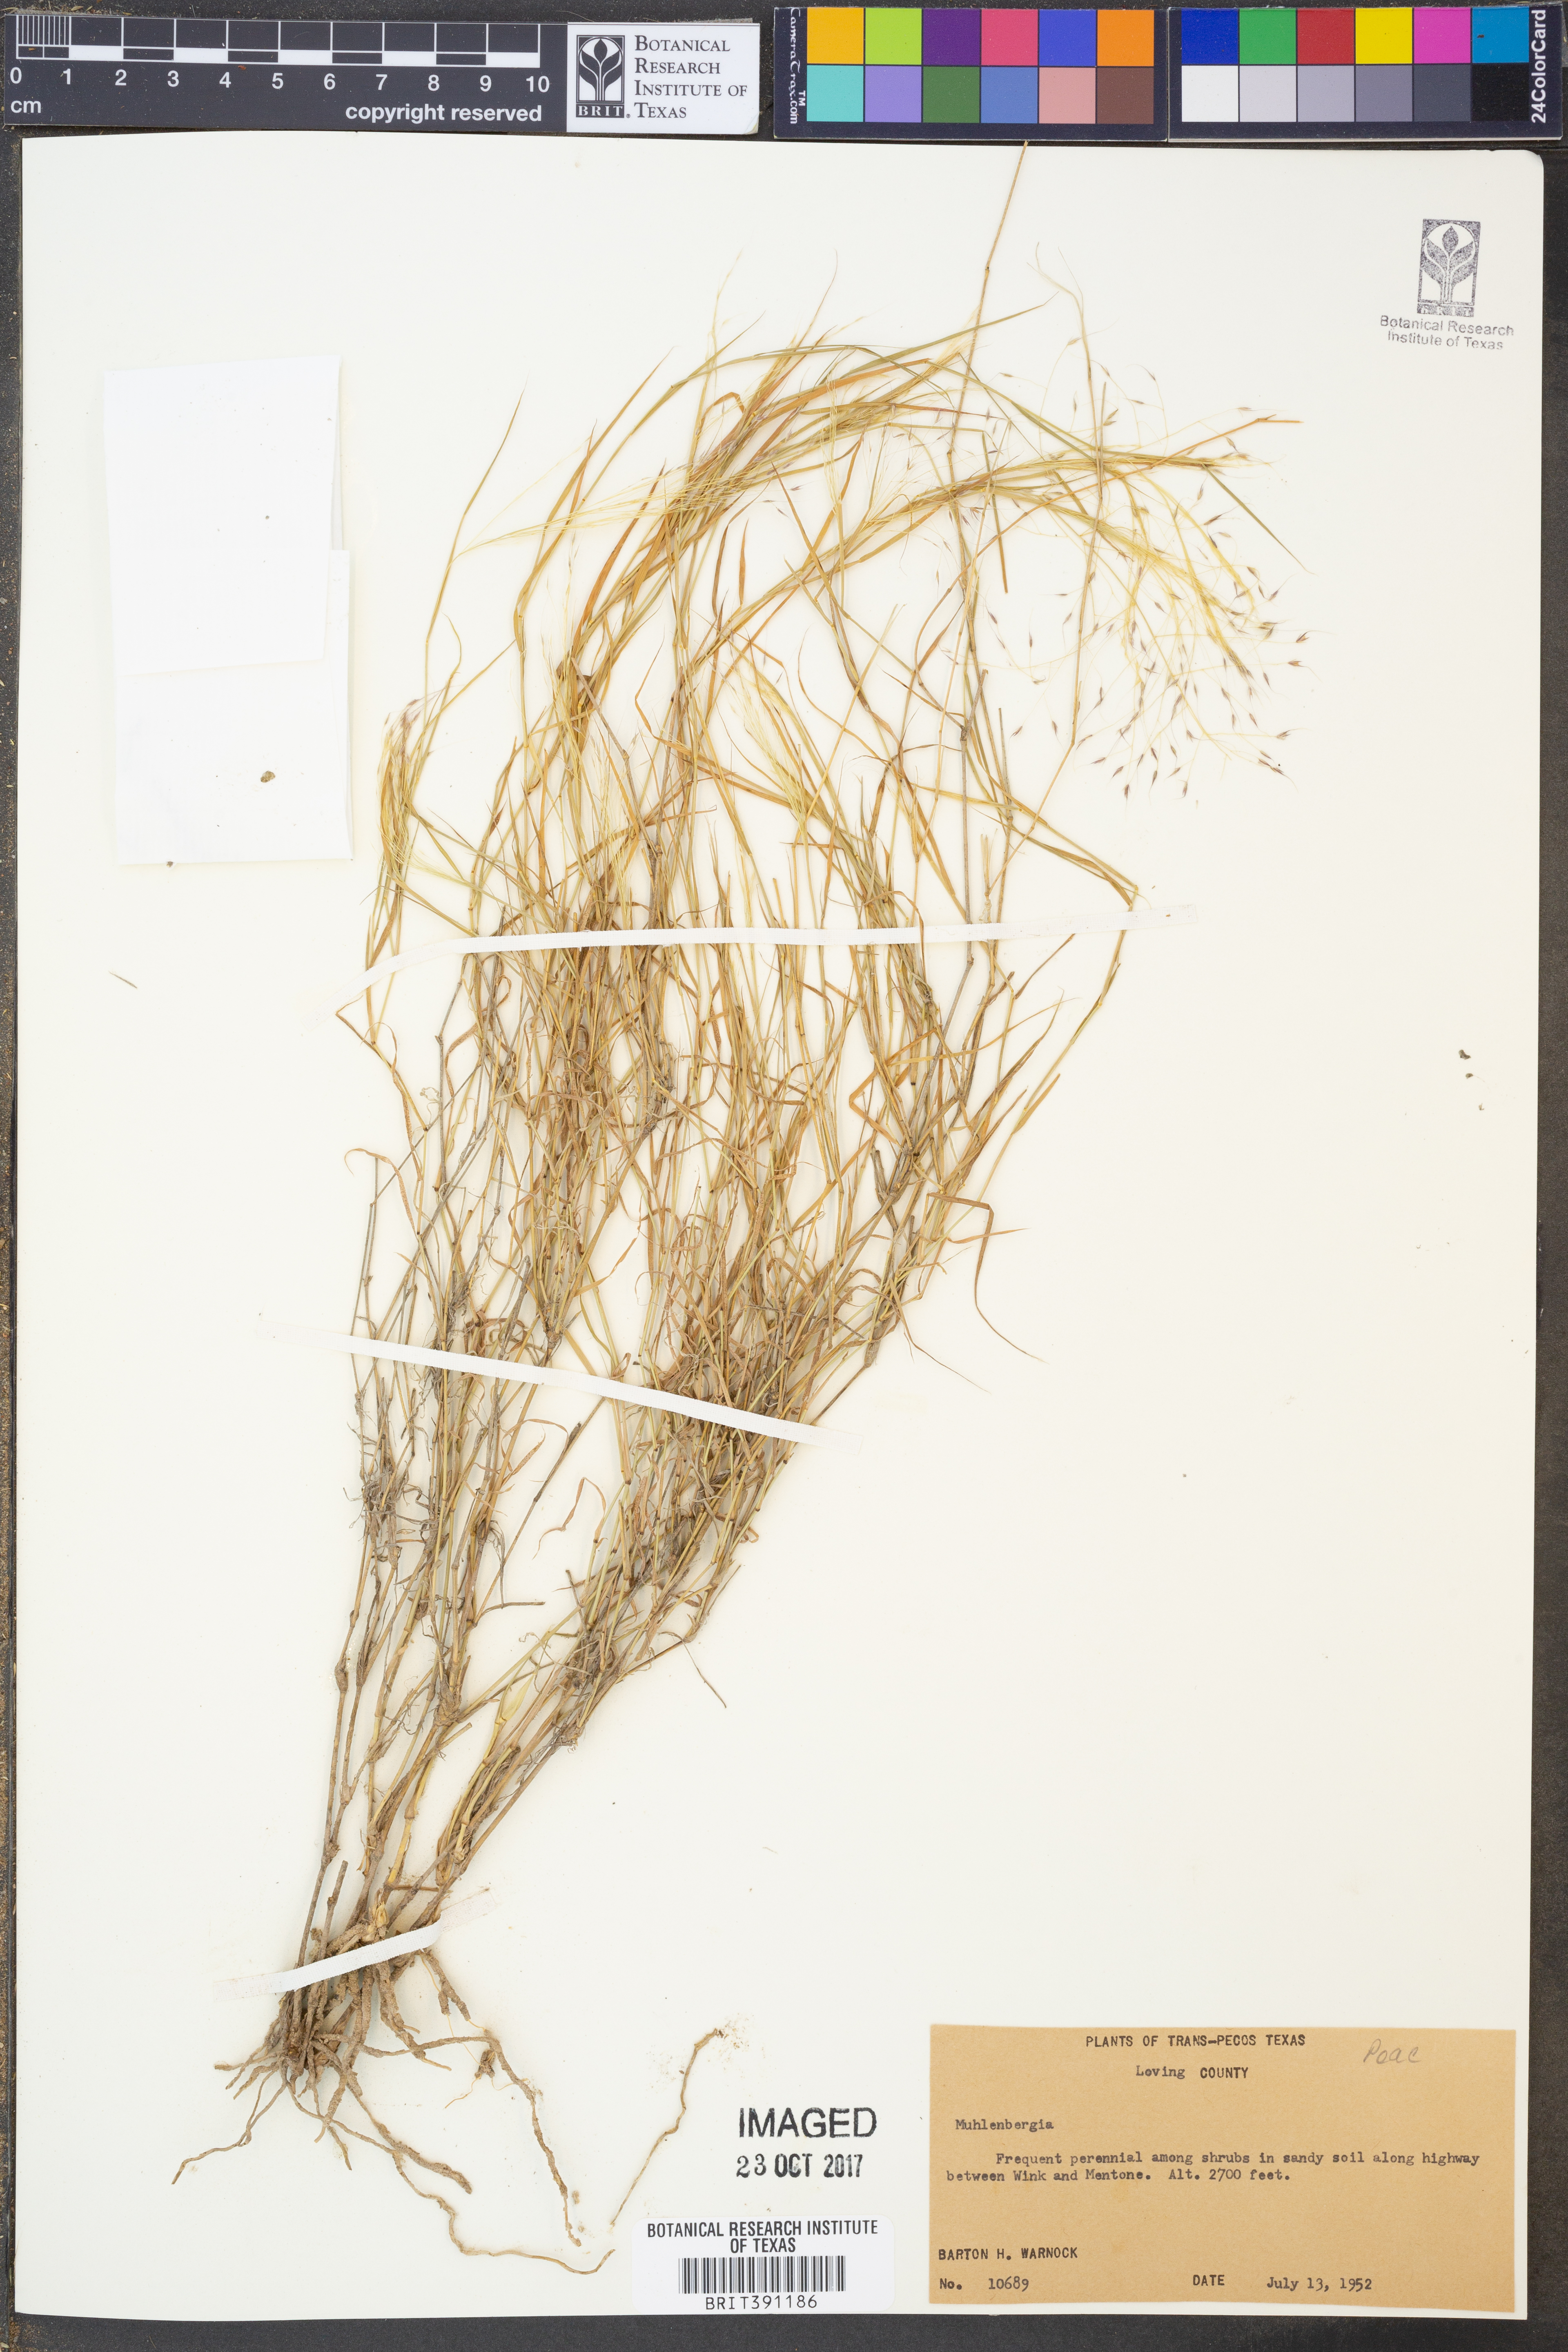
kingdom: Plantae
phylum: Tracheophyta
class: Liliopsida
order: Poales
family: Poaceae
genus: Muhlenbergia
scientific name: Muhlenbergia
